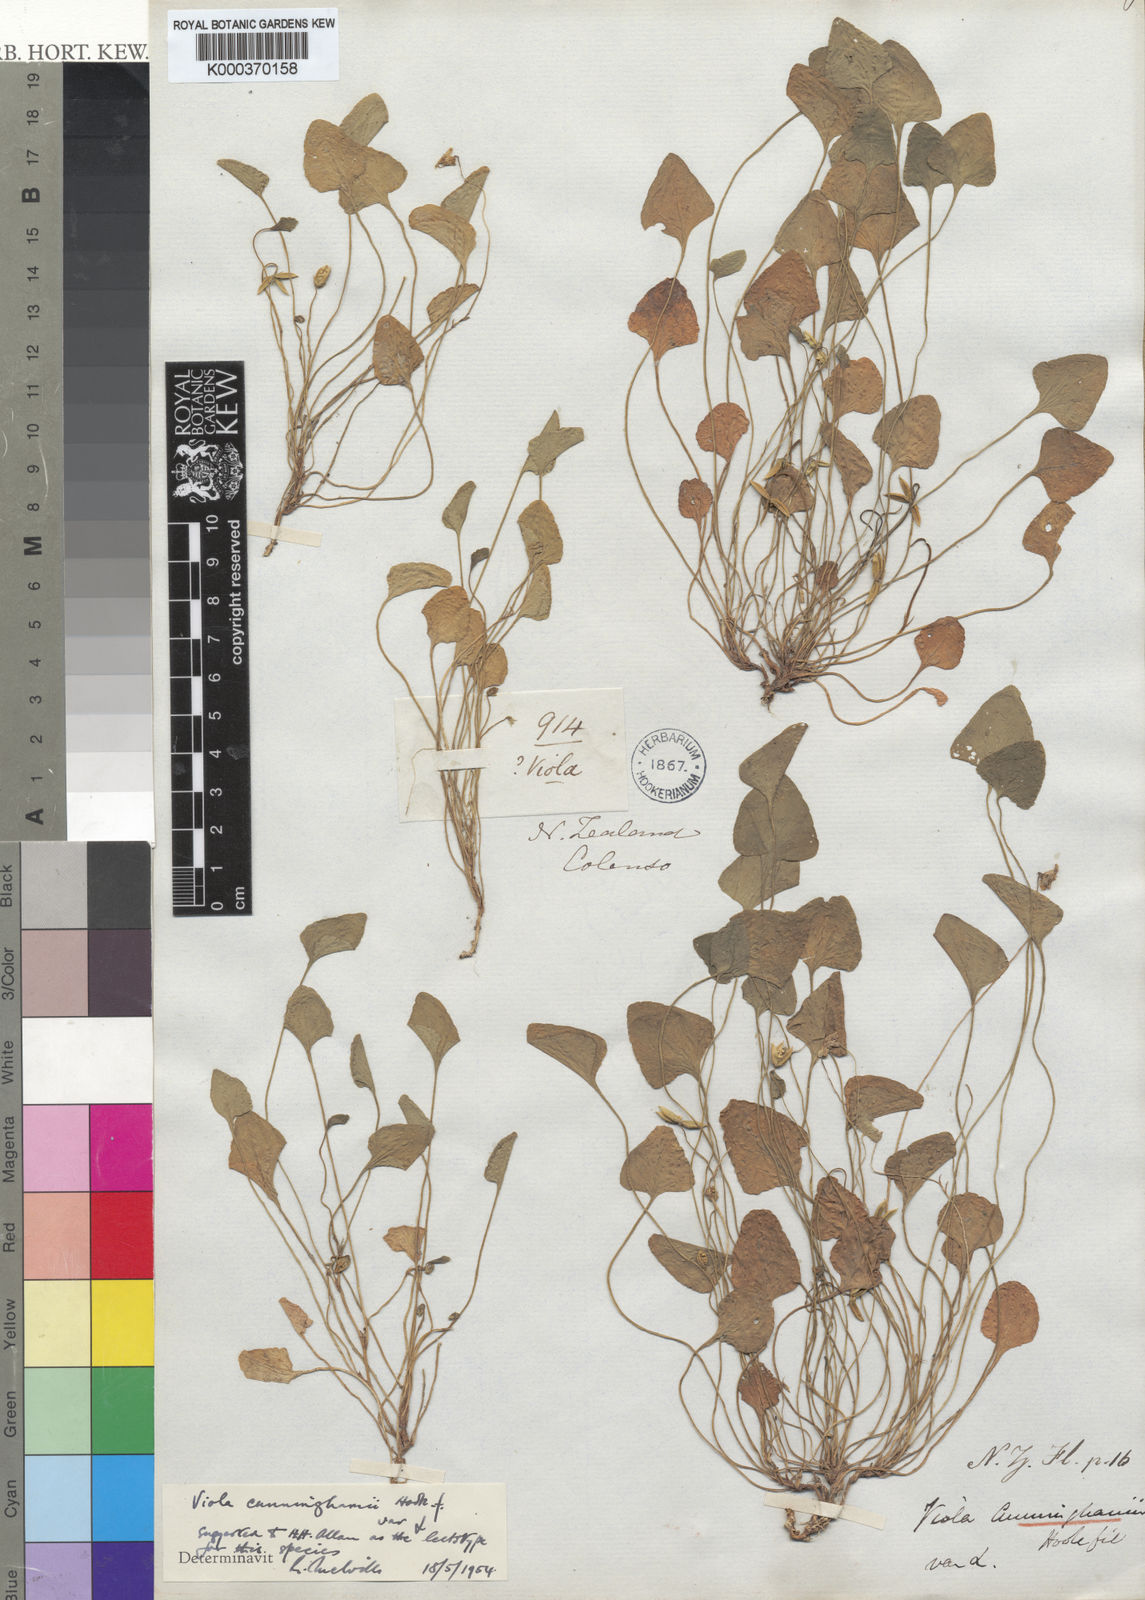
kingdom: Plantae
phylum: Tracheophyta
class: Magnoliopsida
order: Malpighiales
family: Violaceae
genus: Viola
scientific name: Viola cunninghamii
